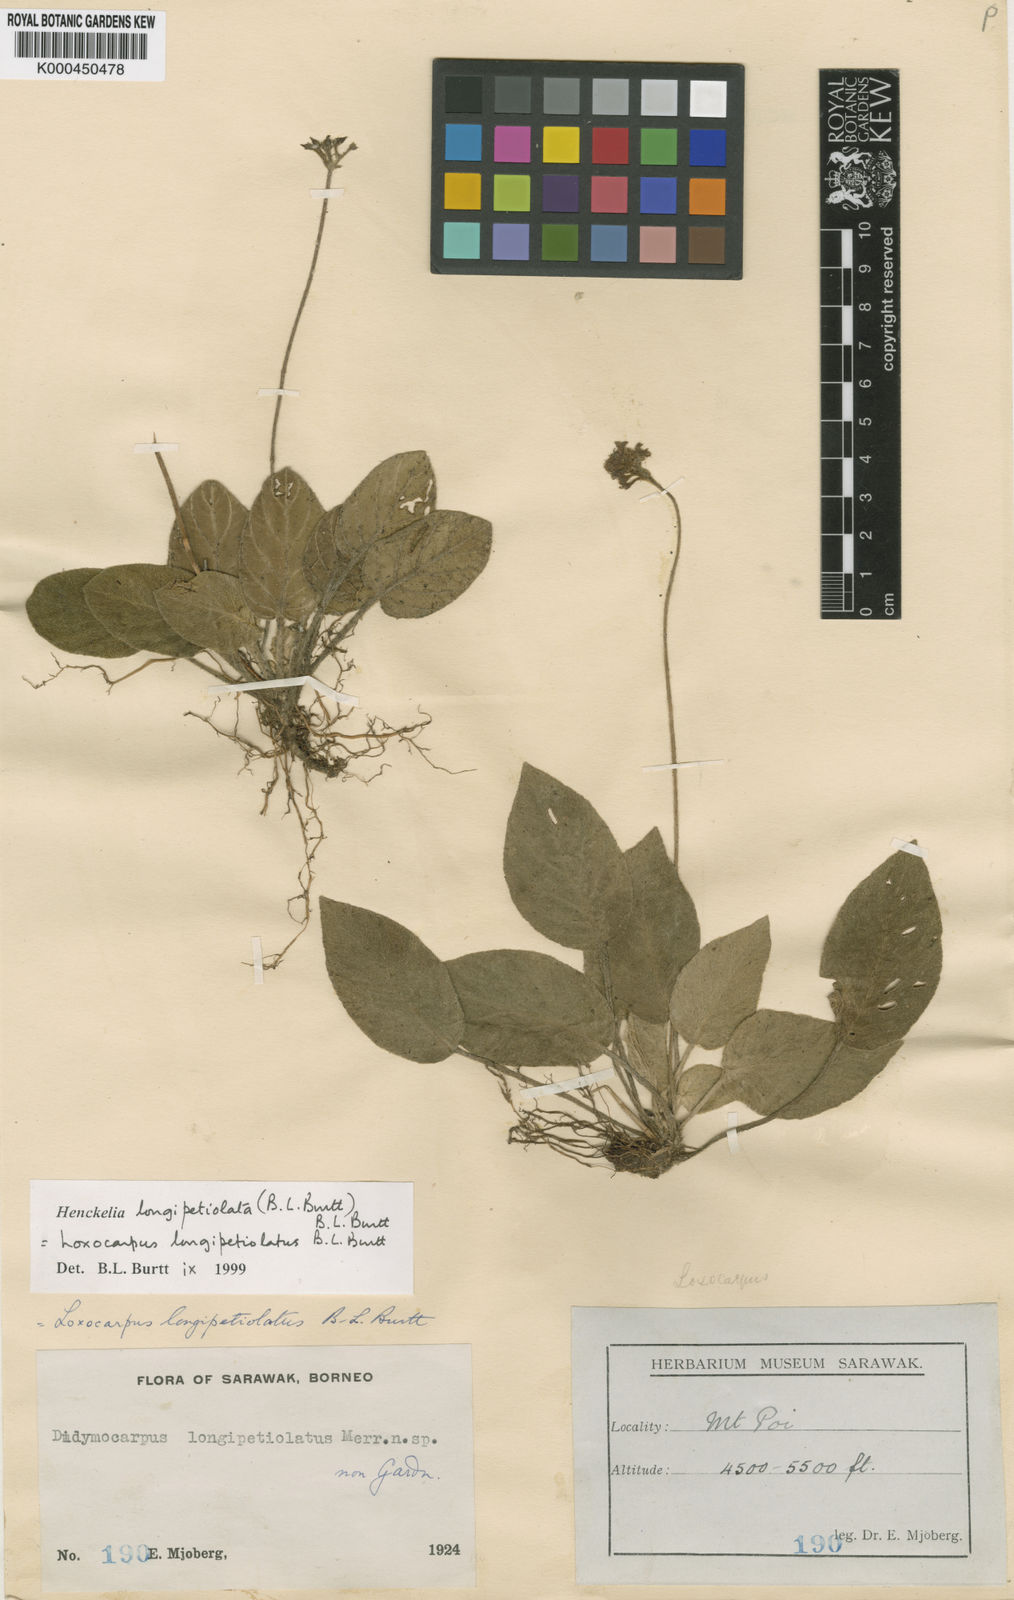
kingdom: Plantae
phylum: Tracheophyta
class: Magnoliopsida
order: Lamiales
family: Gesneriaceae
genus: Loxocarpus
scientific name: Loxocarpus longipetiolatus
